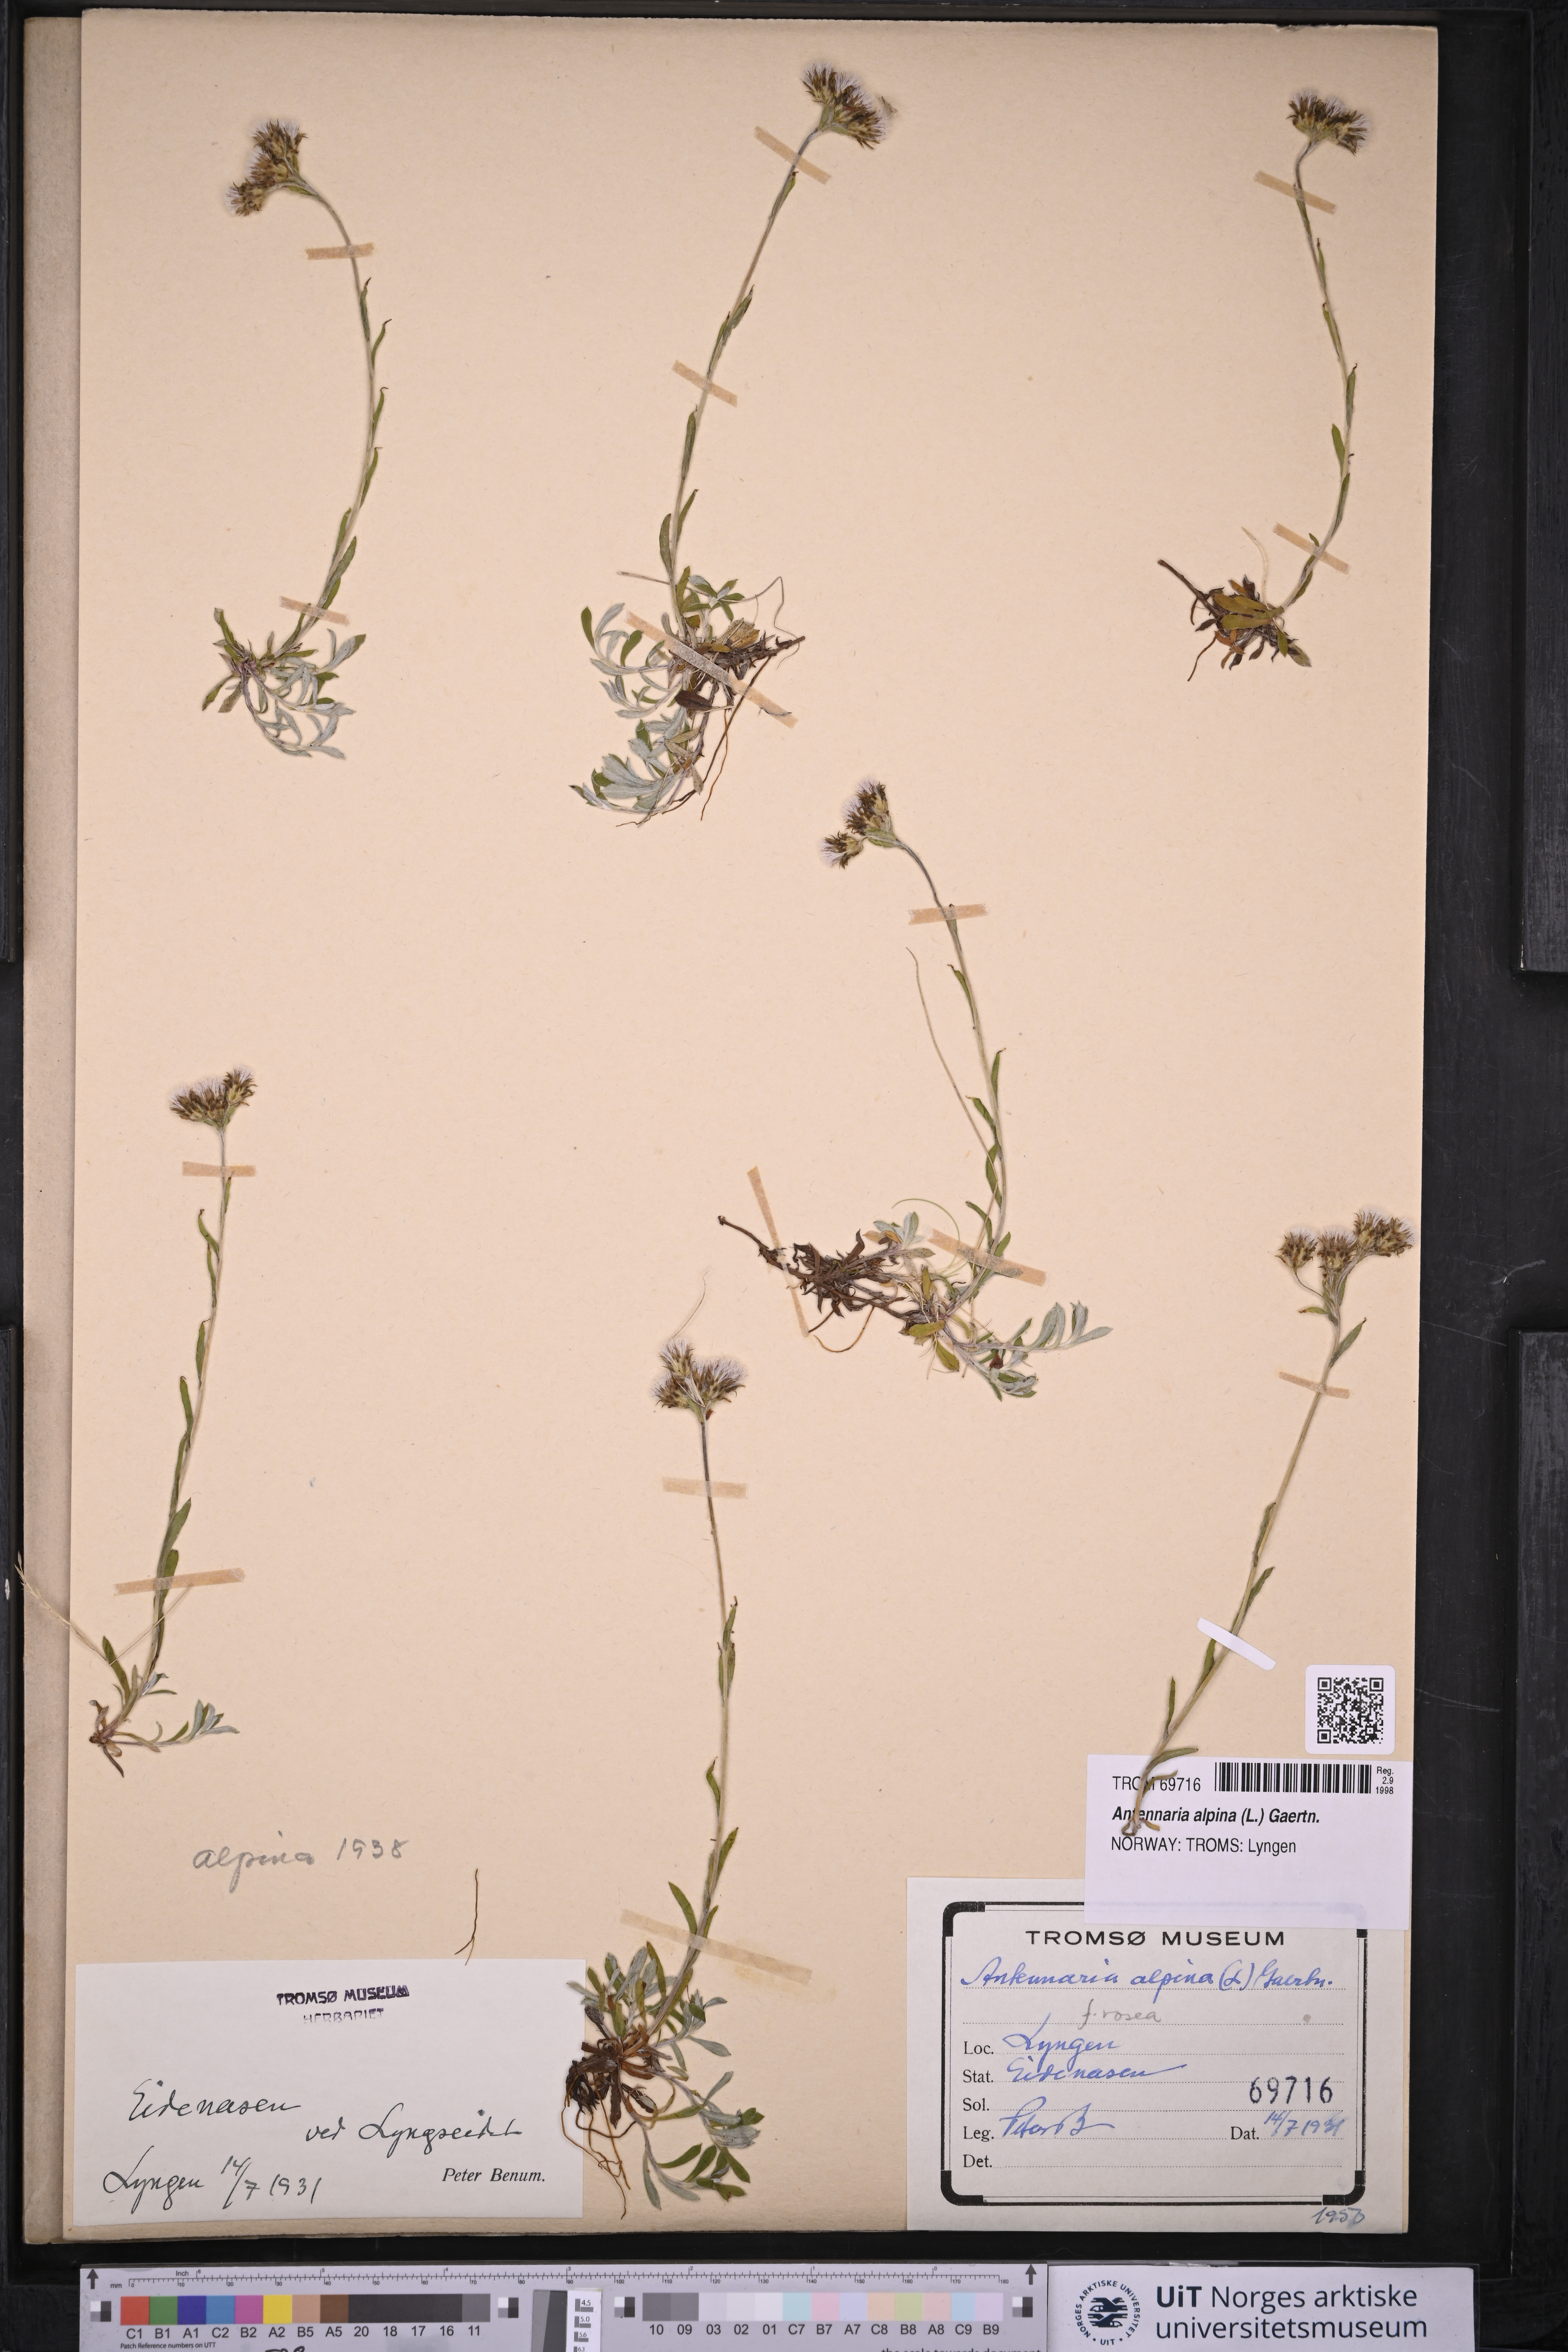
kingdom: Plantae
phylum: Tracheophyta
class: Magnoliopsida
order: Asterales
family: Asteraceae
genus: Antennaria
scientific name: Antennaria alpina
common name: Alpine pussytoes
